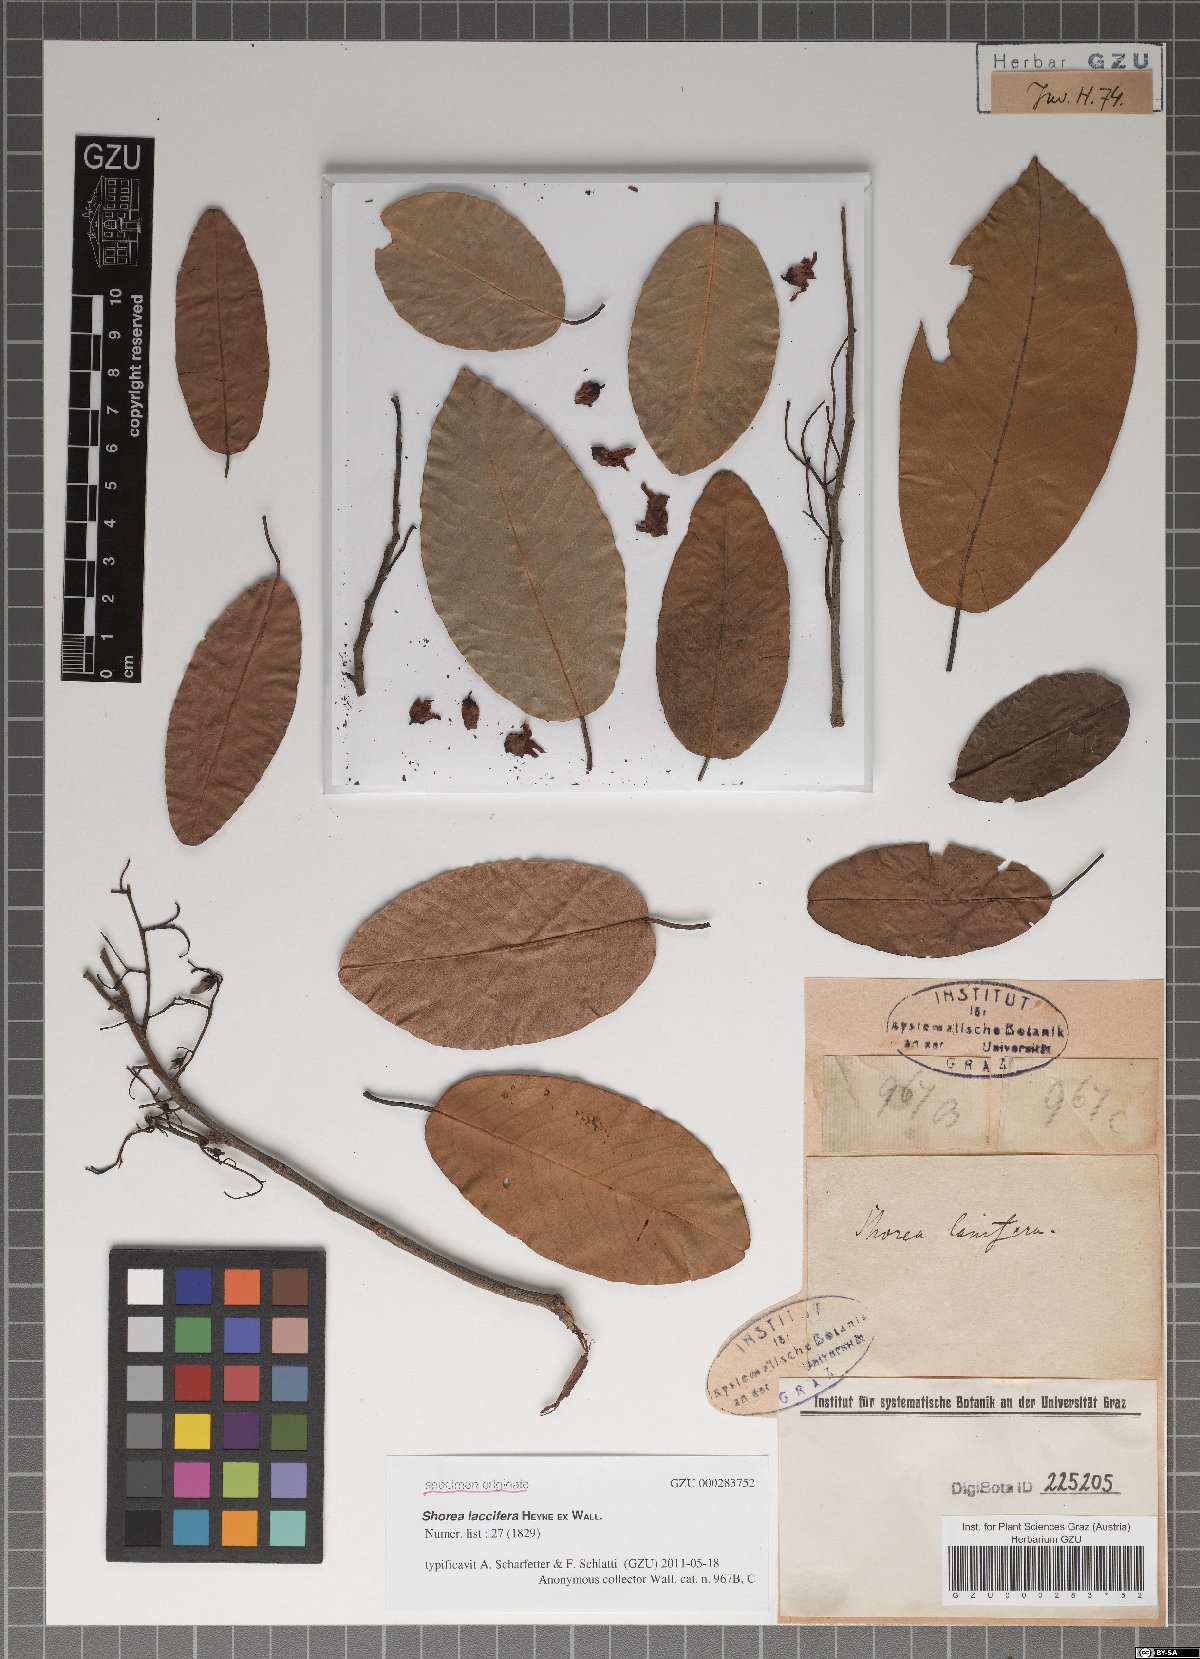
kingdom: Plantae
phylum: Tracheophyta
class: Magnoliopsida
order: Malvales
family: Dipterocarpaceae
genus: Anthoshorea
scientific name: Anthoshorea roxburghii
